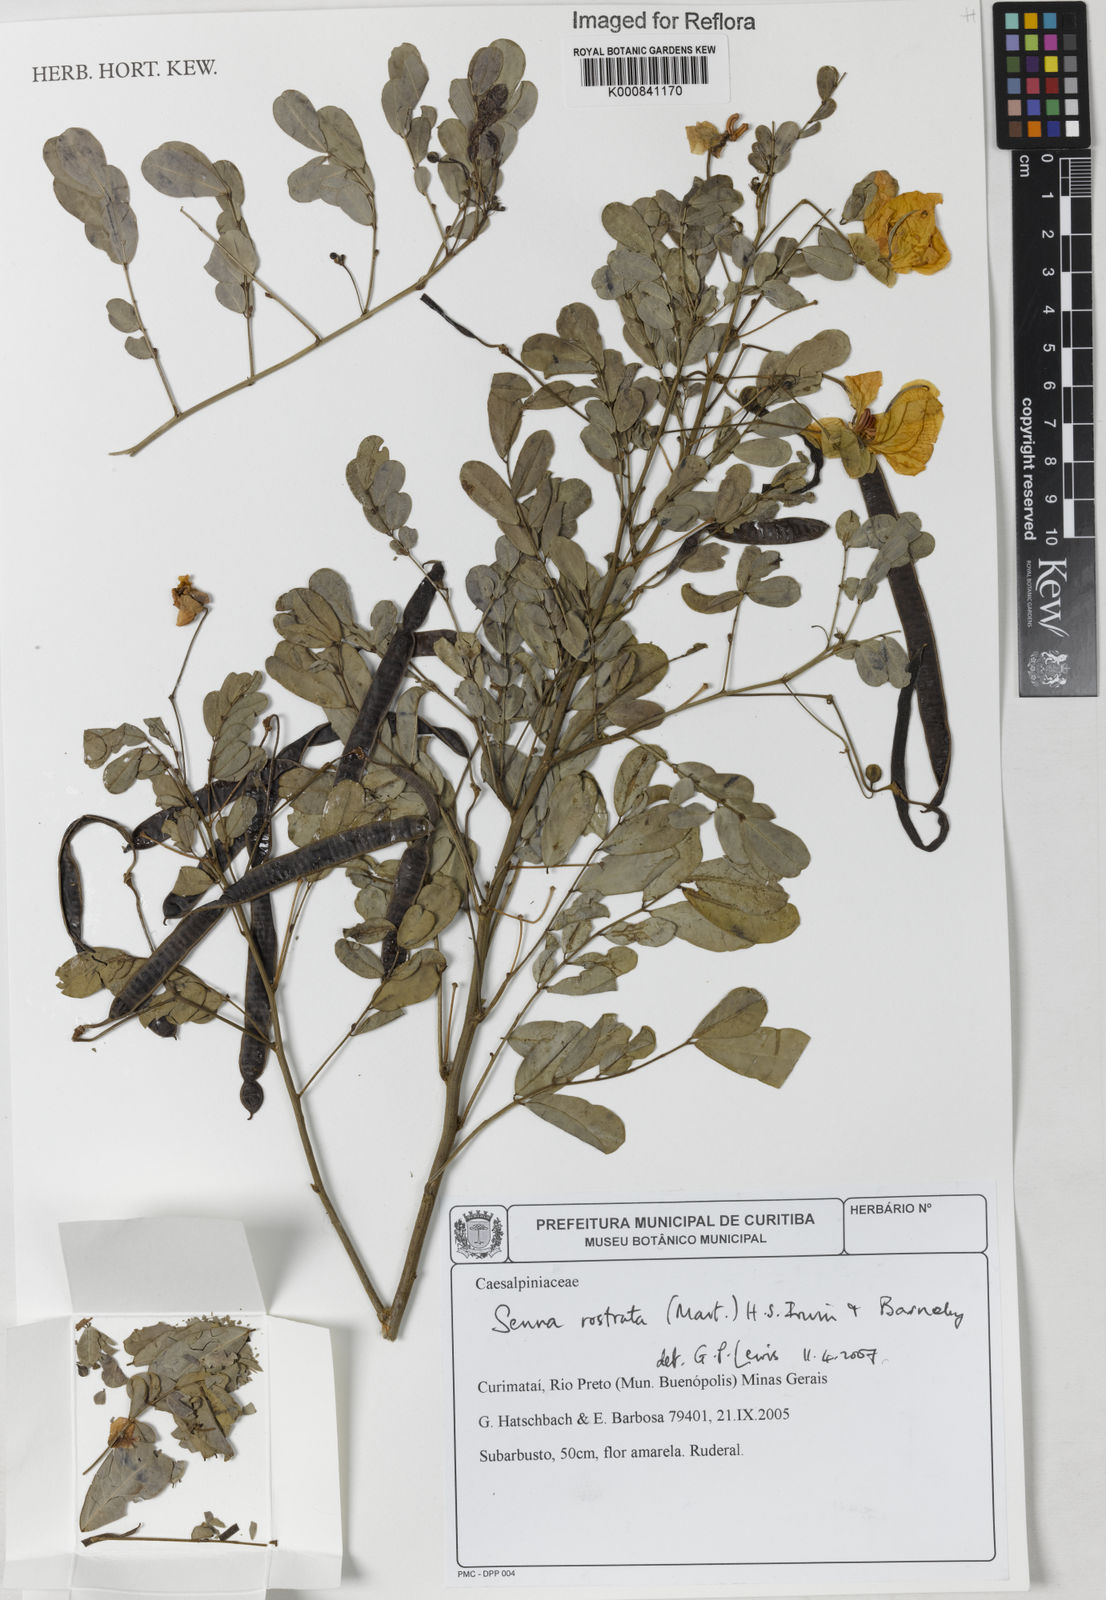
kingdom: Plantae
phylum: Tracheophyta
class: Magnoliopsida
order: Fabales
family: Fabaceae
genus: Senna
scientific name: Senna rostrata
